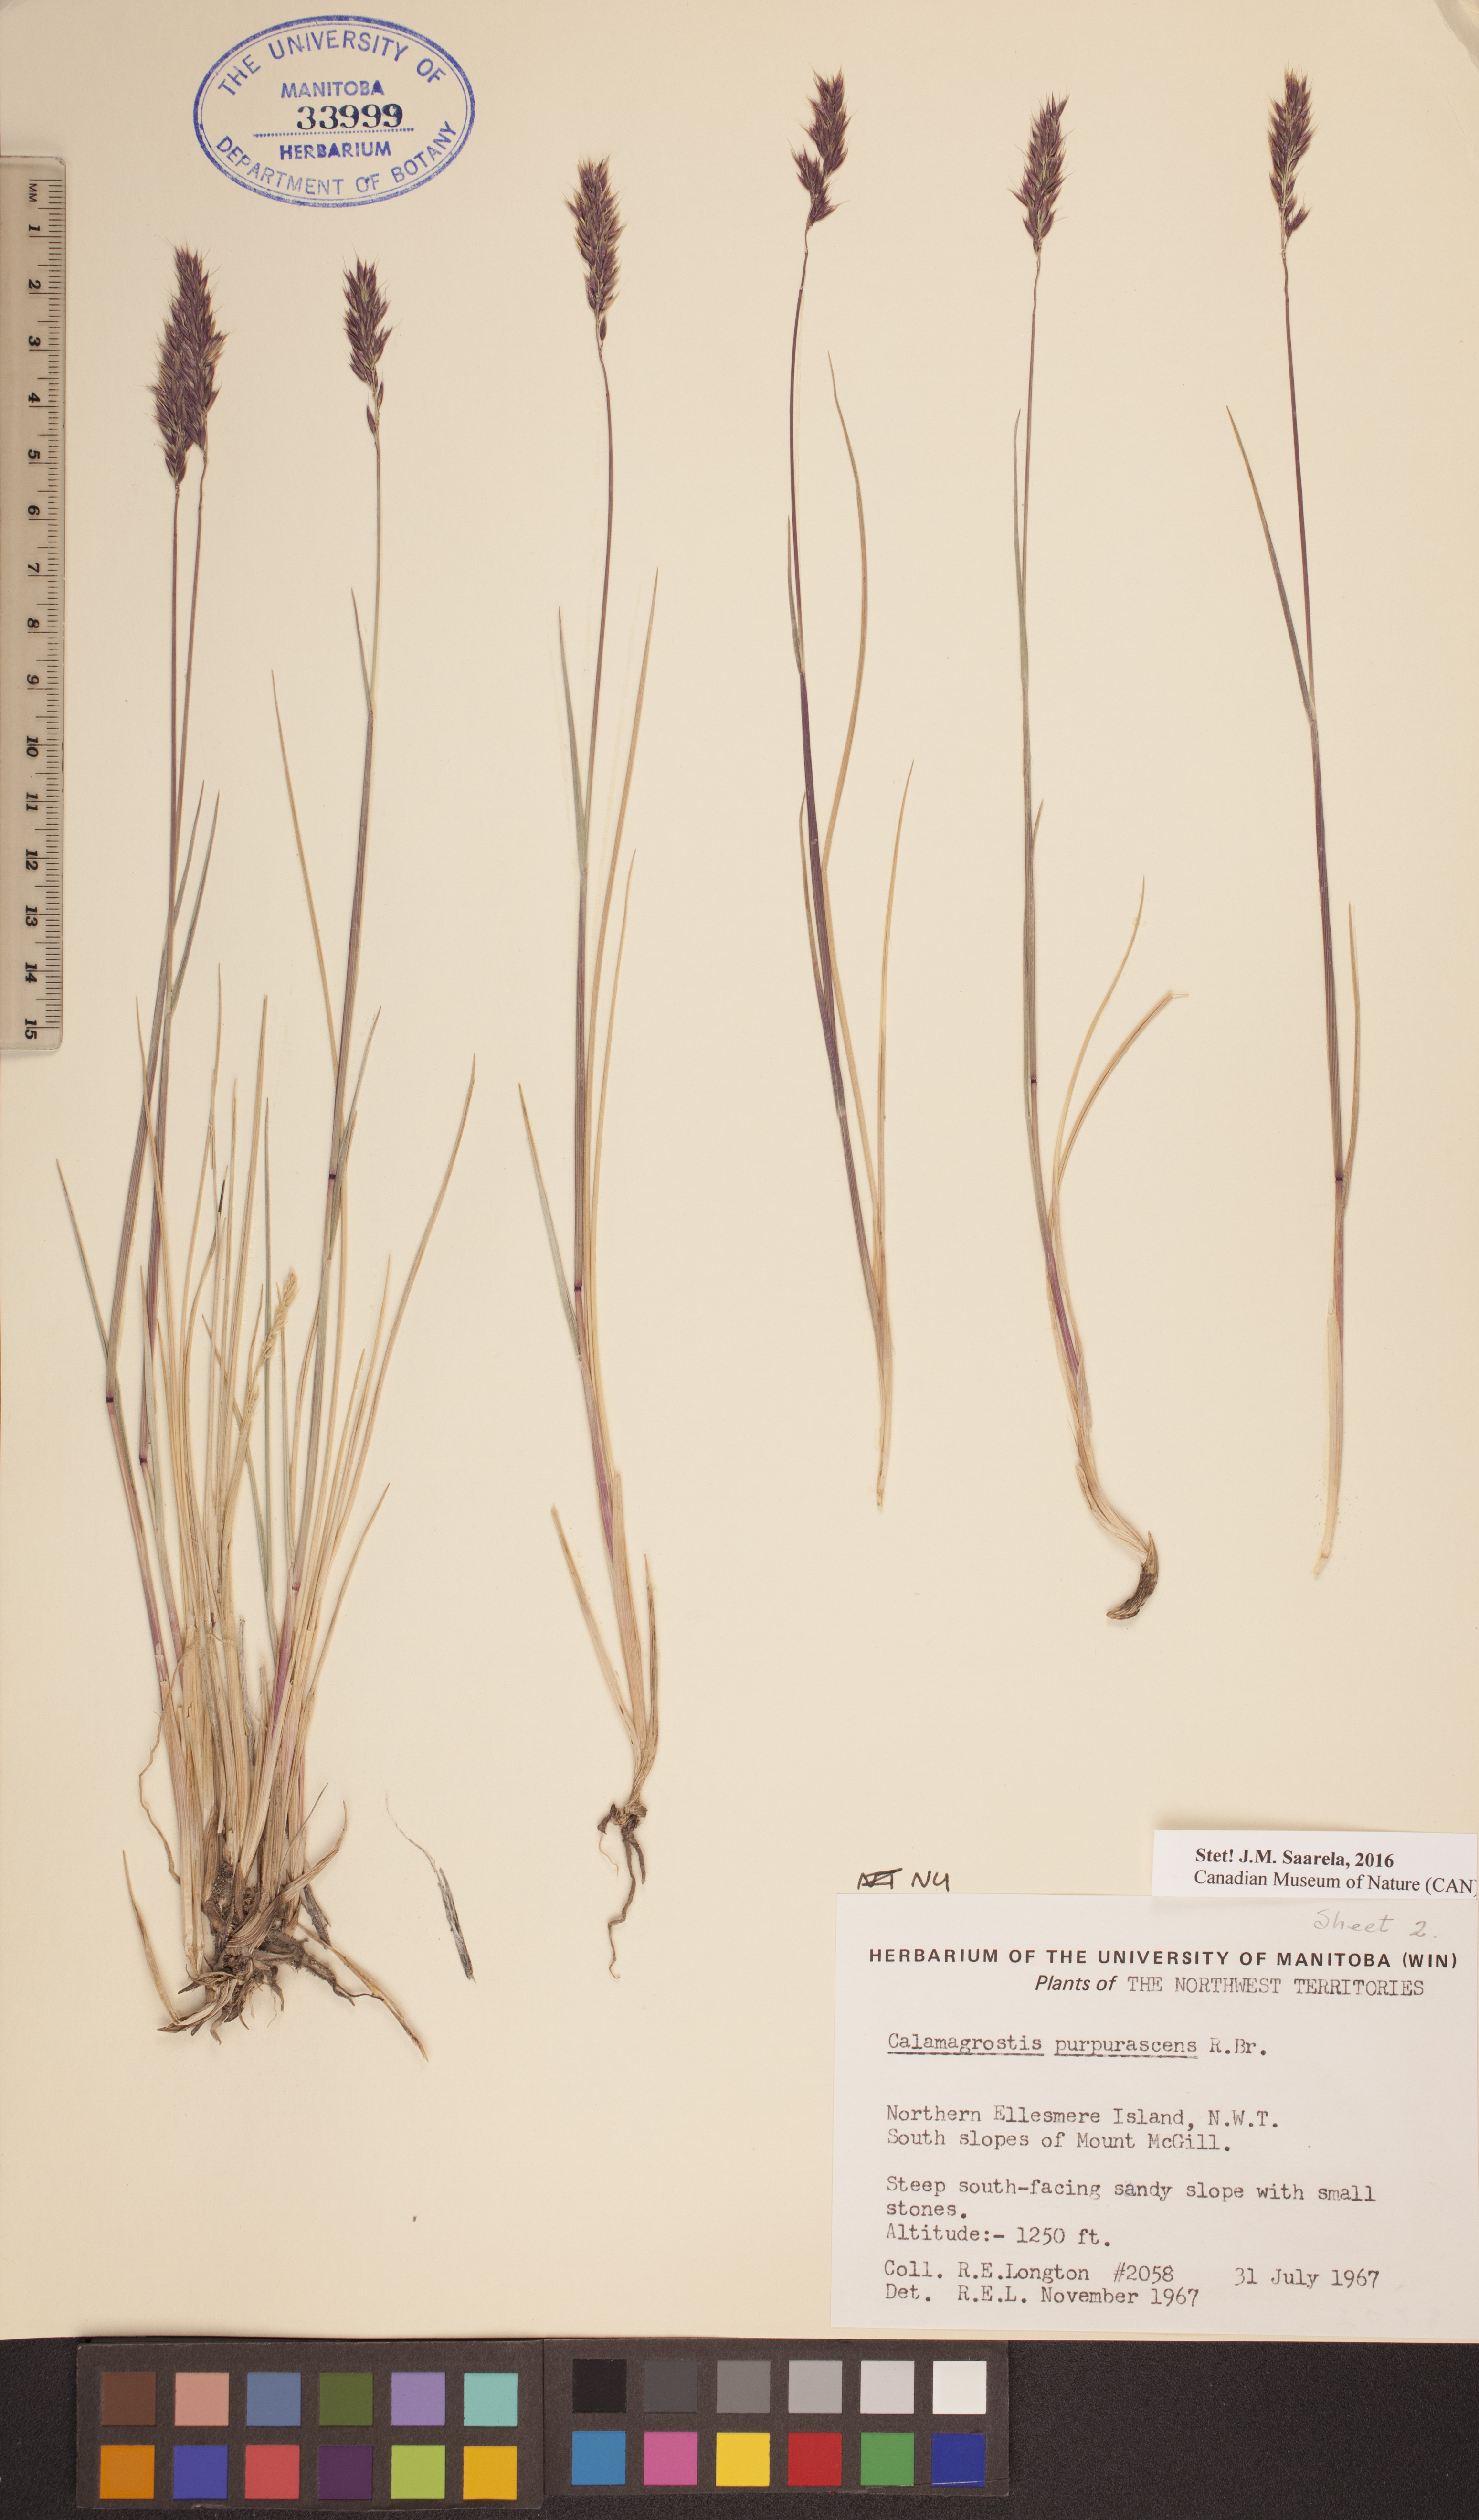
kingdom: Plantae
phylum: Tracheophyta
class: Liliopsida
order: Poales
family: Poaceae
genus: Calamagrostis
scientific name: Calamagrostis purpurascens
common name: Purple reedgrass
